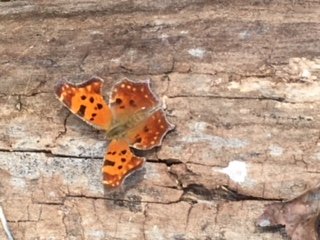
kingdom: Animalia
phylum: Arthropoda
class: Insecta
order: Lepidoptera
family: Nymphalidae
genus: Polygonia
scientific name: Polygonia comma
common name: Eastern Comma
